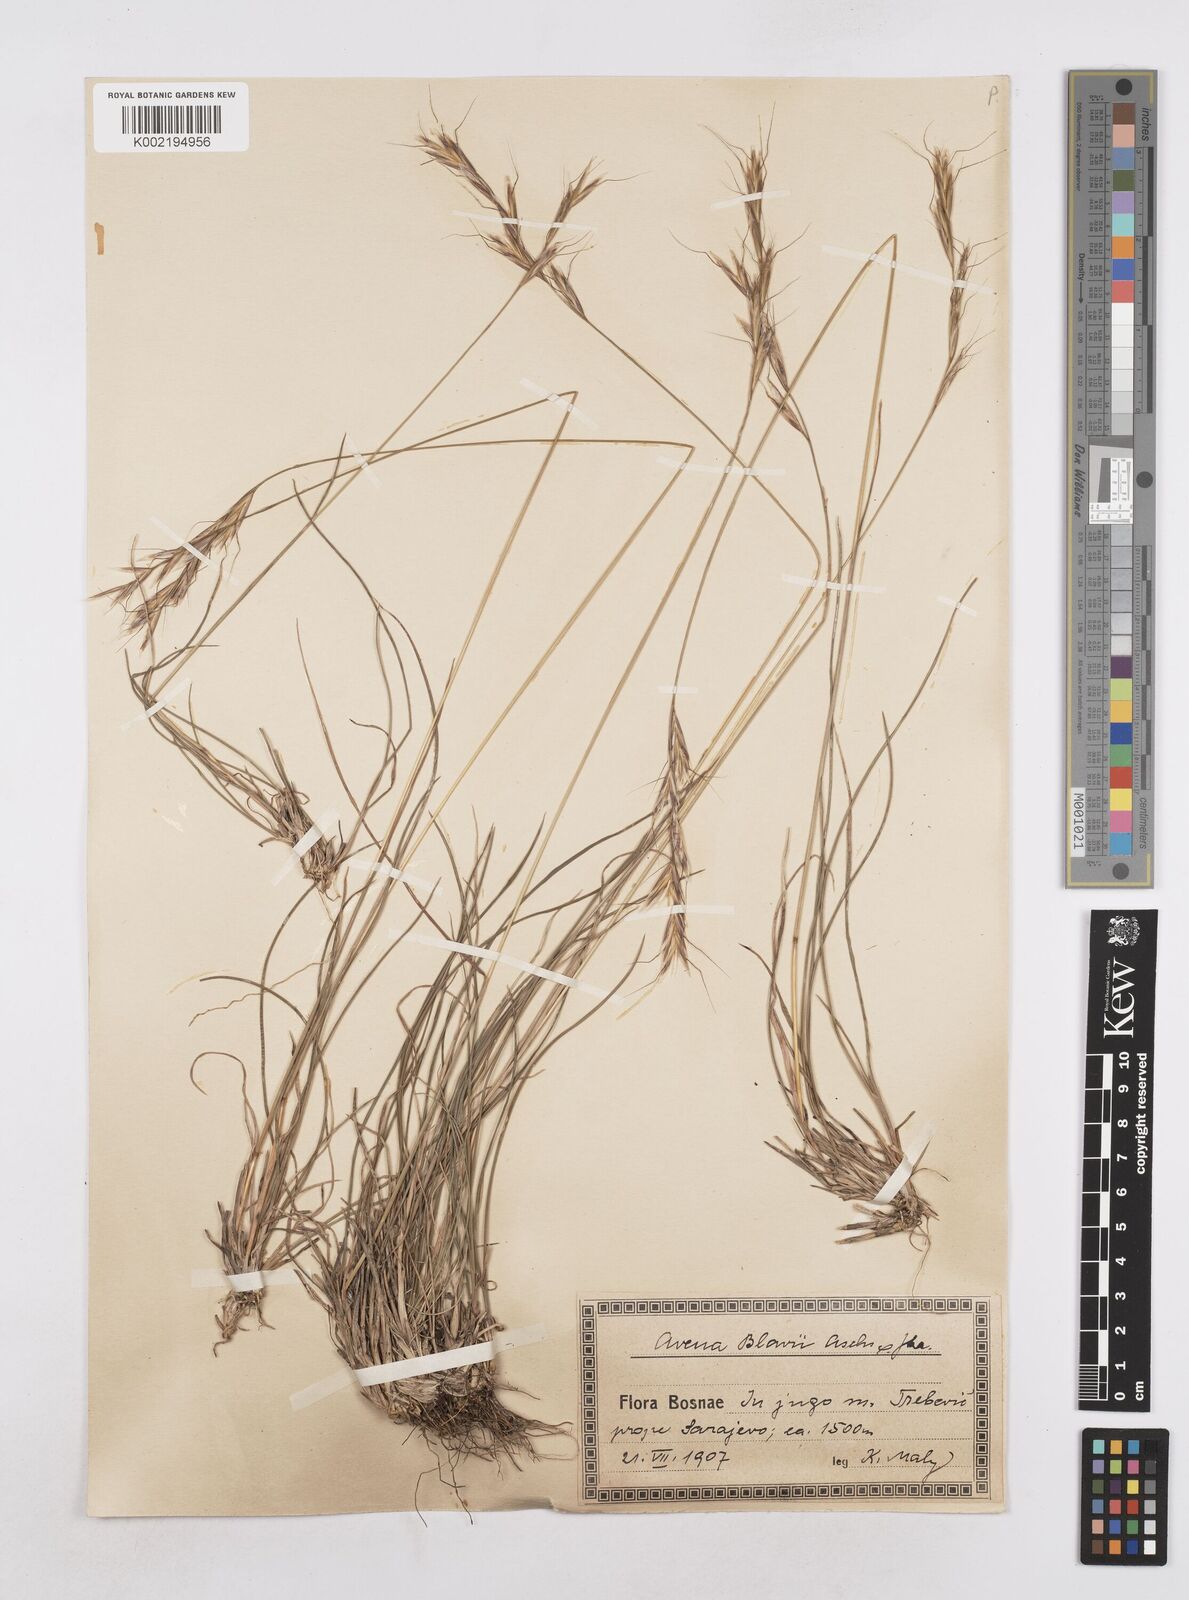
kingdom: Plantae
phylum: Tracheophyta
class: Liliopsida
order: Poales
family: Poaceae
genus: Helictochloa
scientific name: Helictochloa blaui
